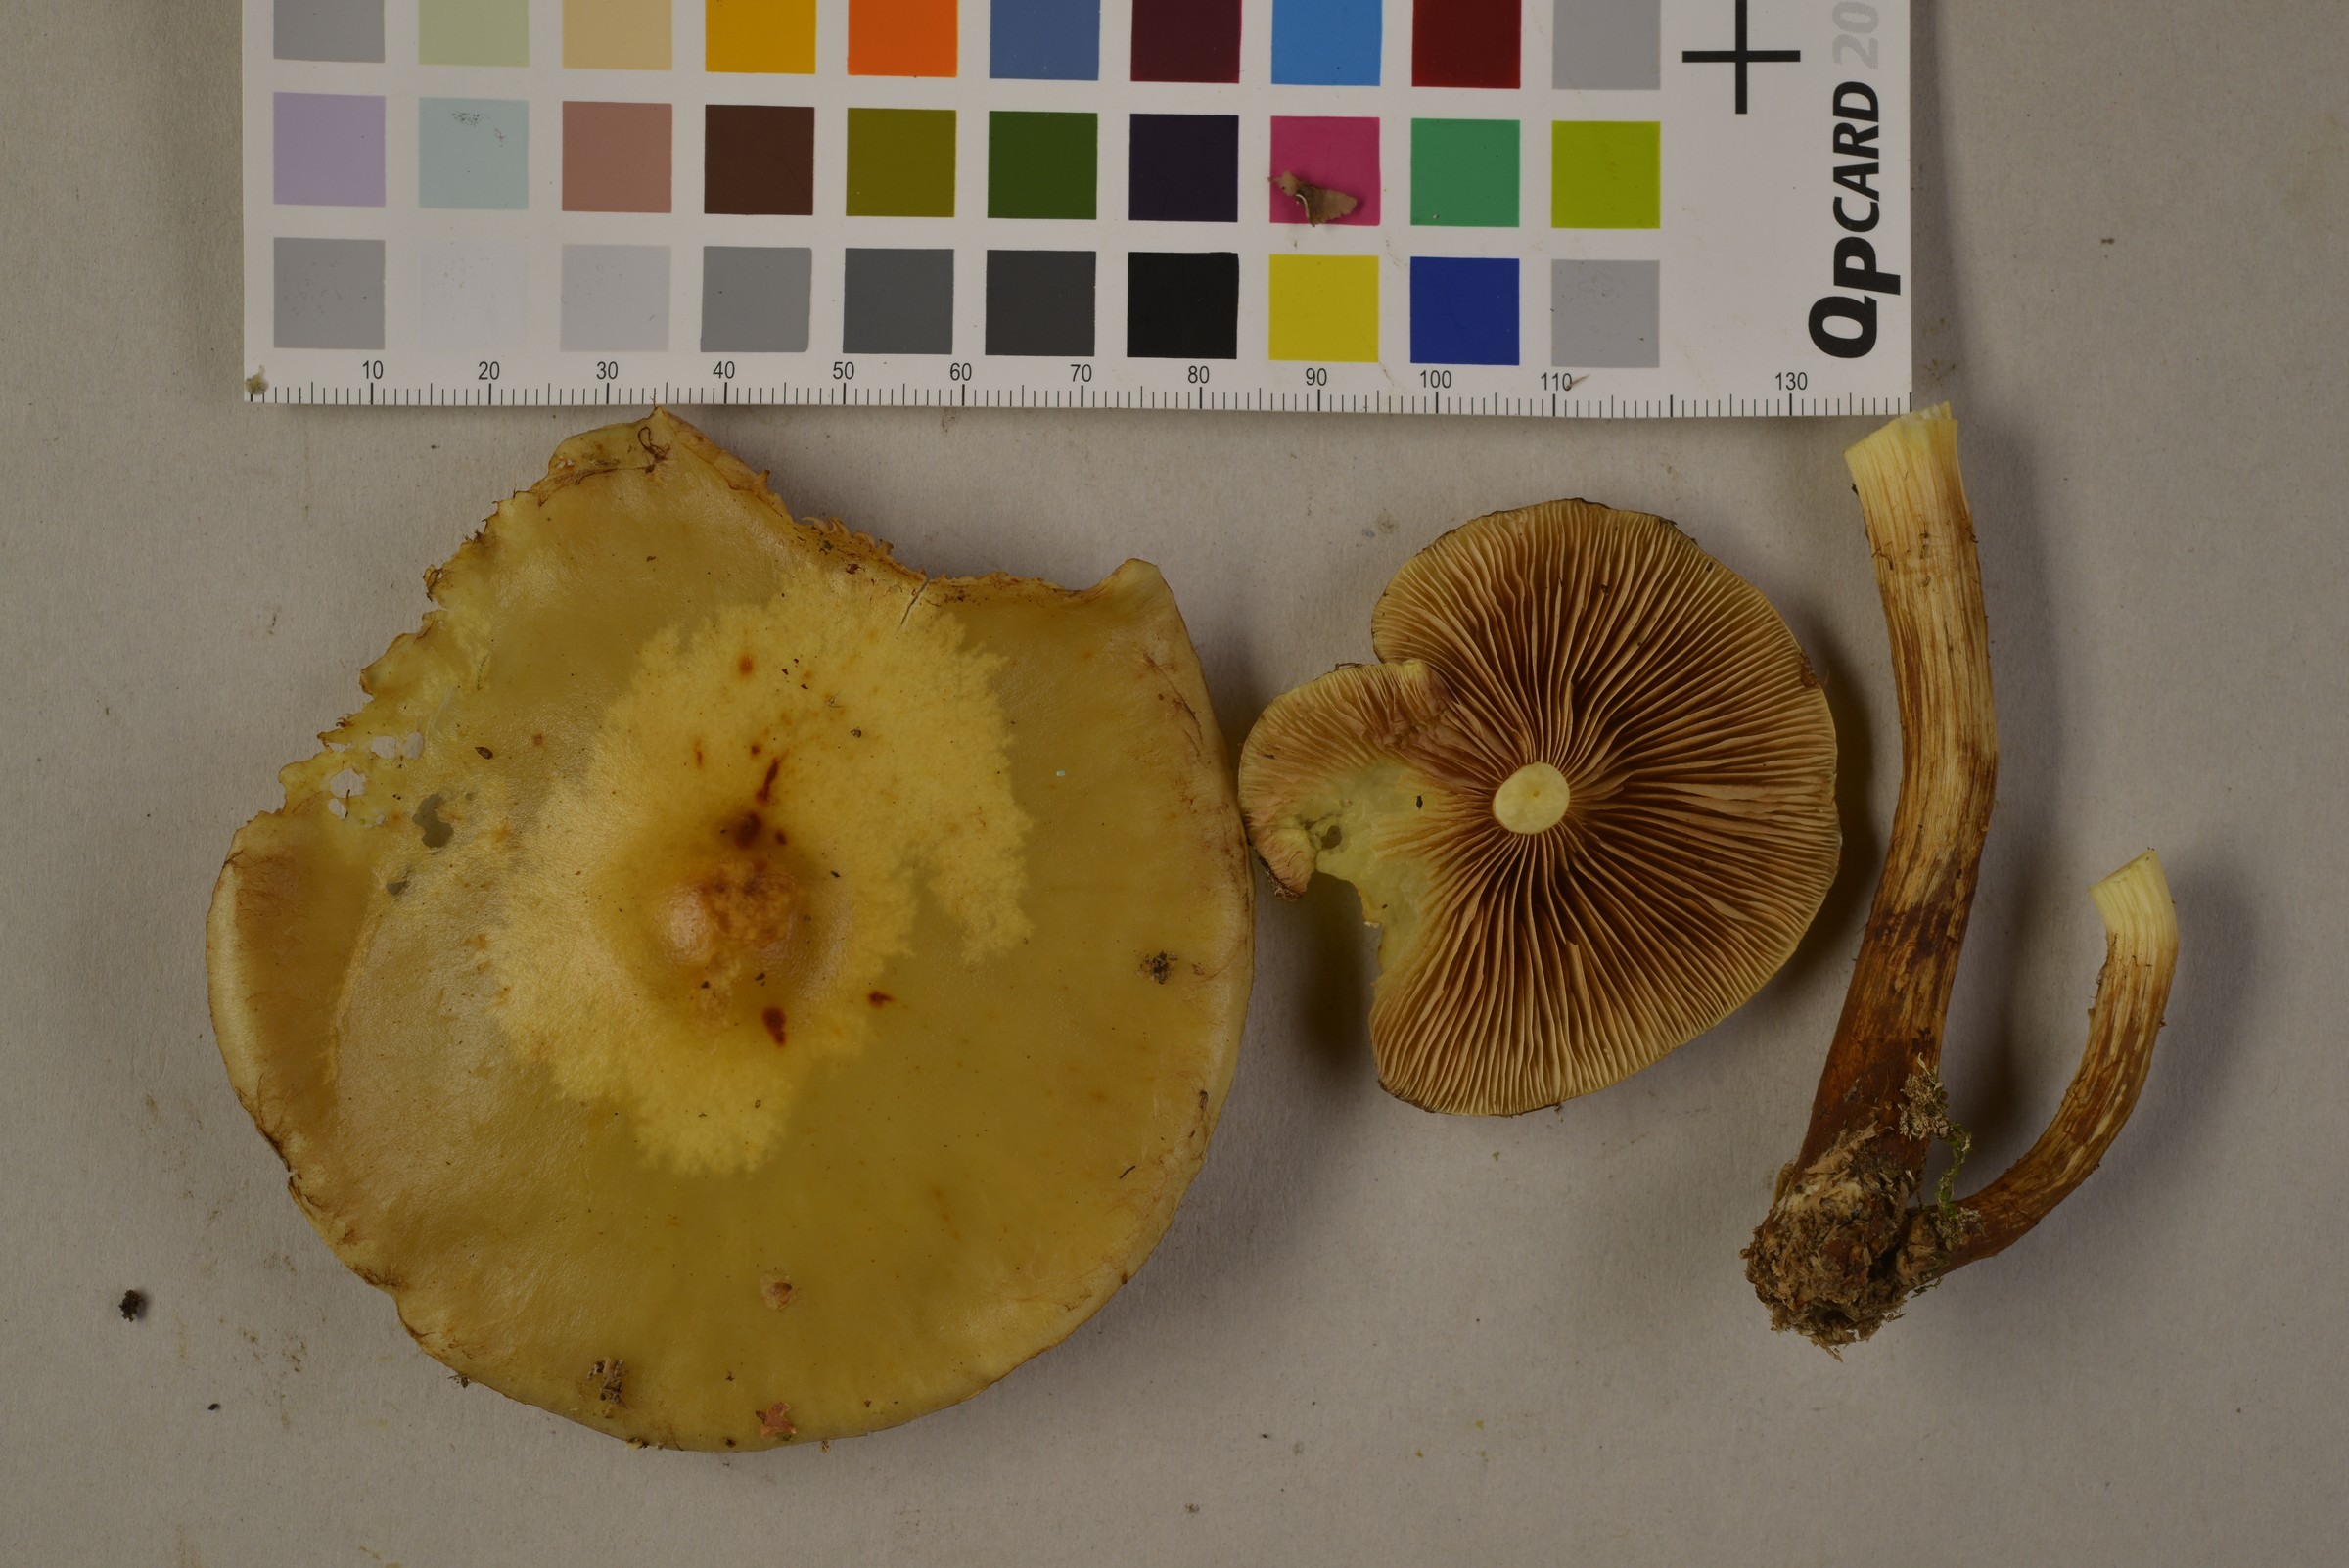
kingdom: Fungi
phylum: Basidiomycota
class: Agaricomycetes
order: Agaricales
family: Hymenogastraceae
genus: Flammula
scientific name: Flammula alnicola
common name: Alder scalycap
